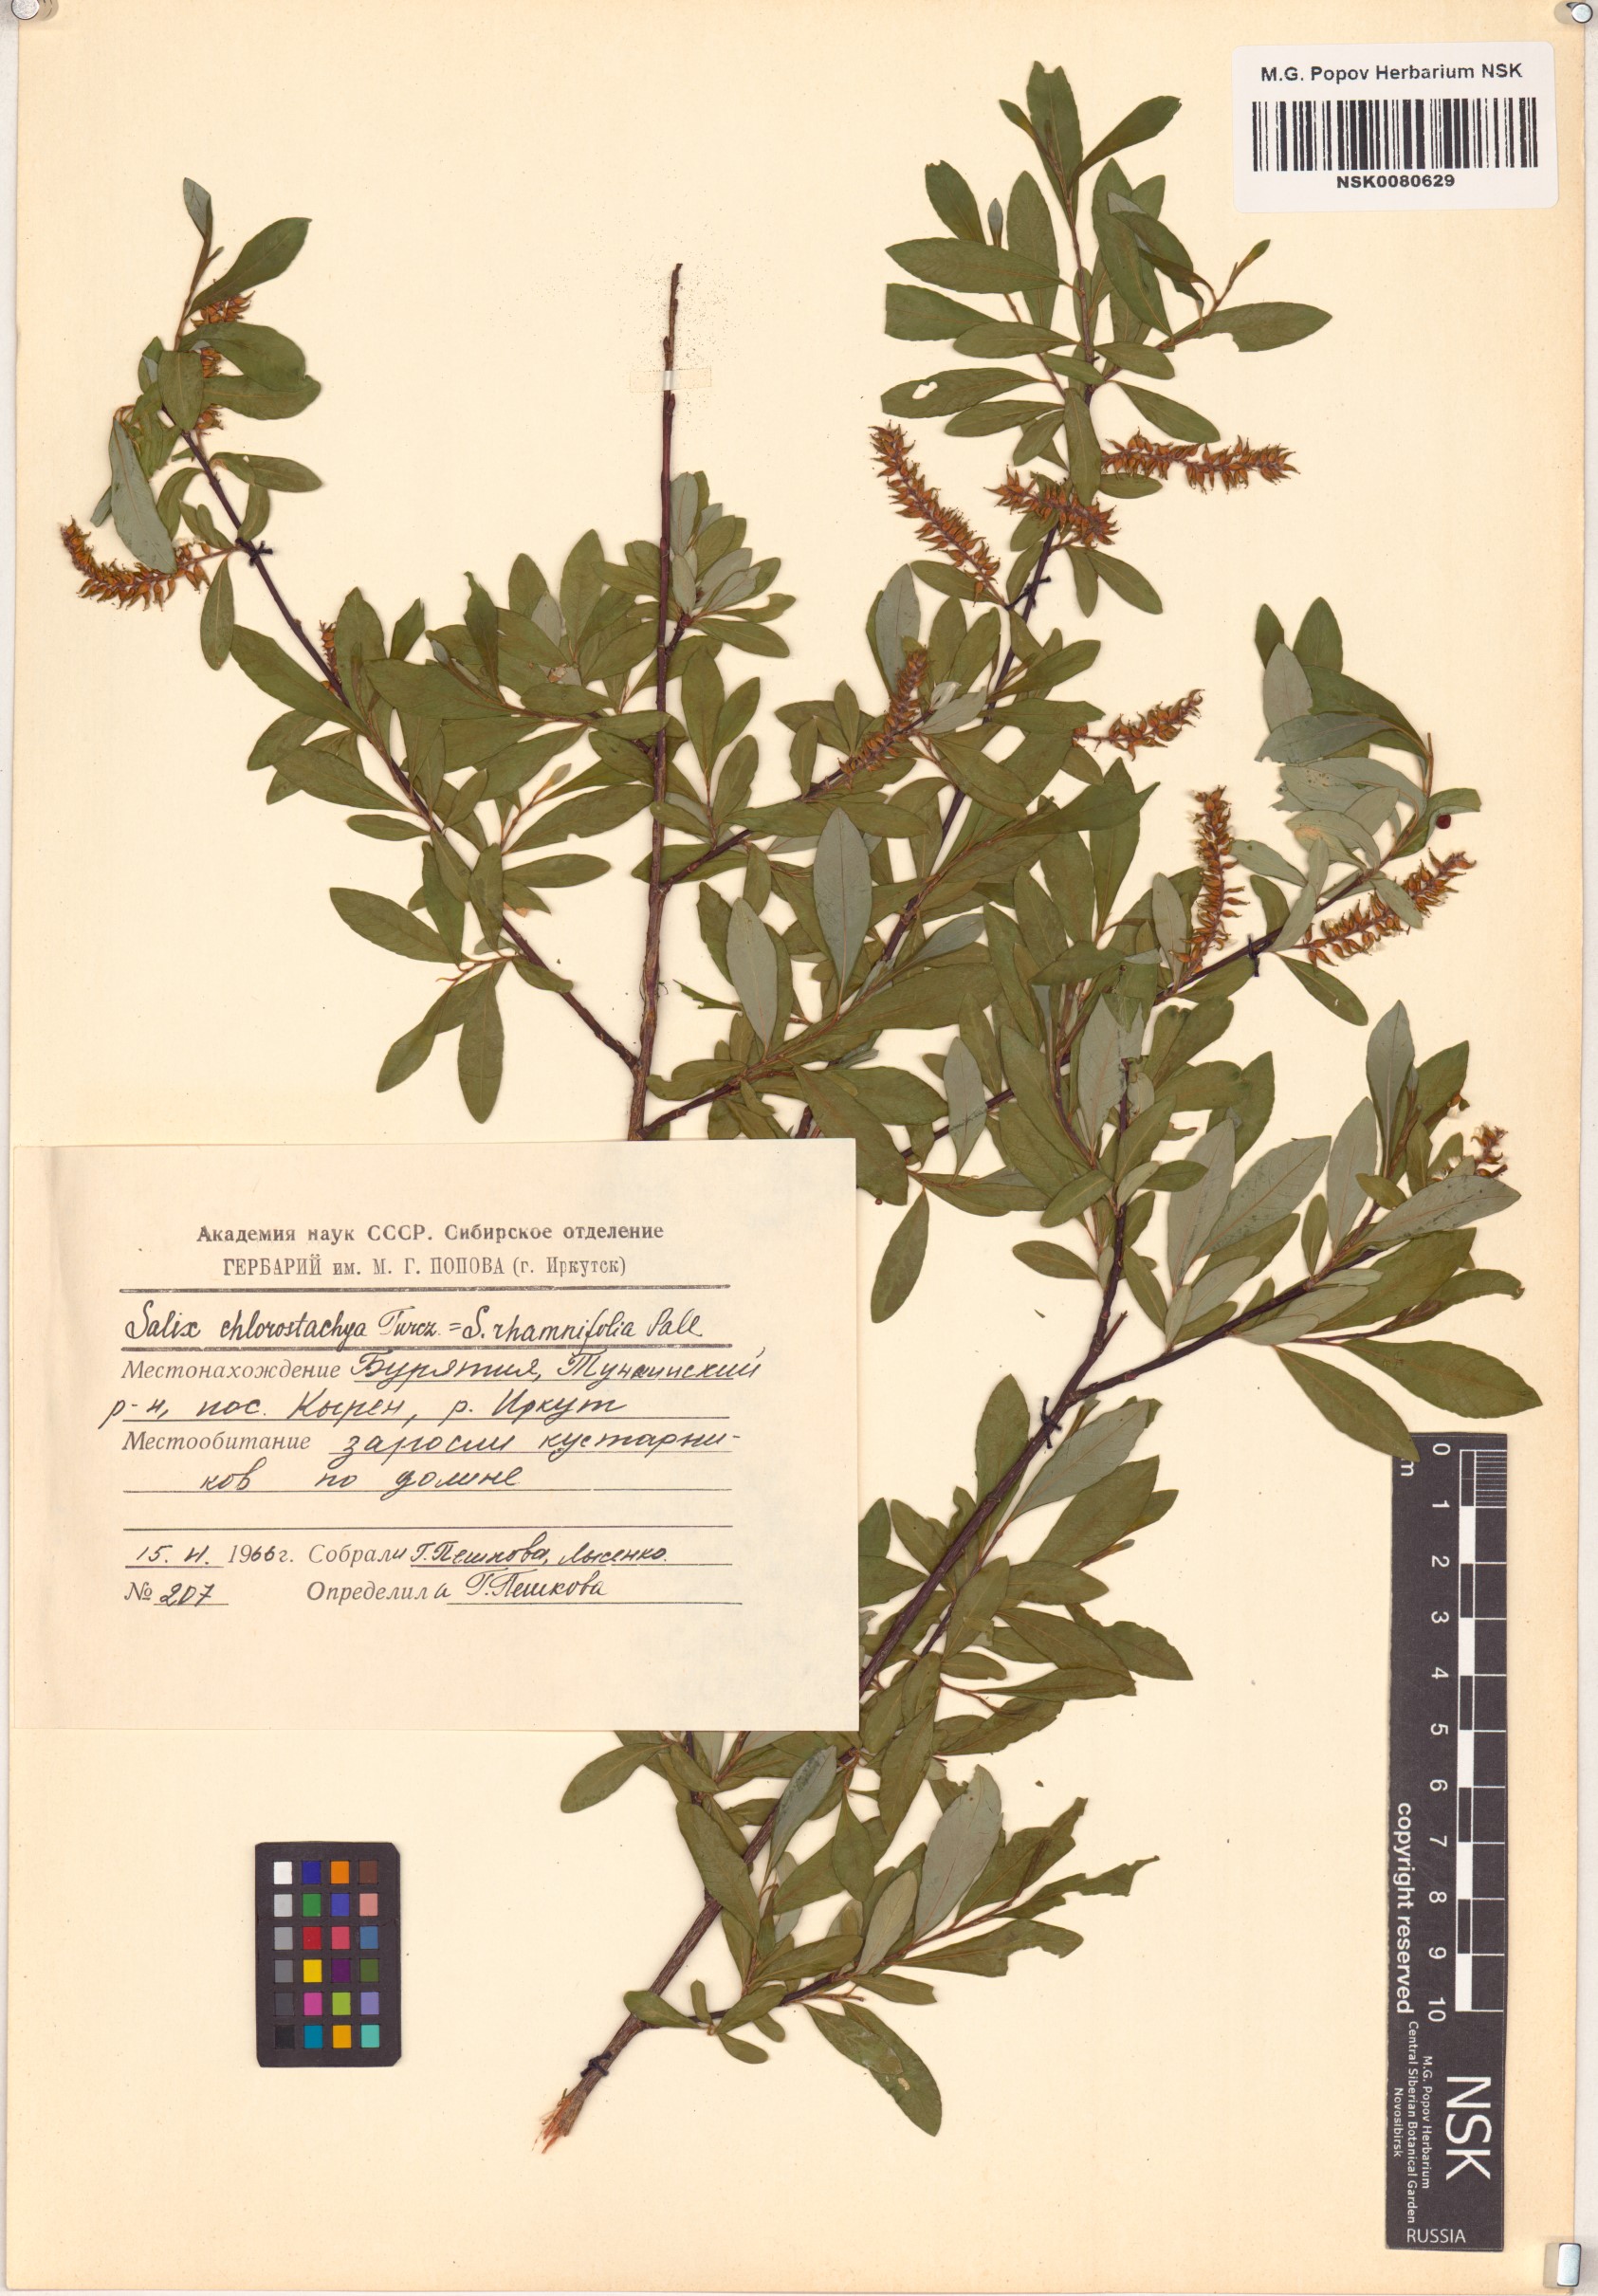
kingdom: Plantae
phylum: Tracheophyta
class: Magnoliopsida
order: Malpighiales
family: Salicaceae
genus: Salix
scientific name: Salix rhamnifolia
